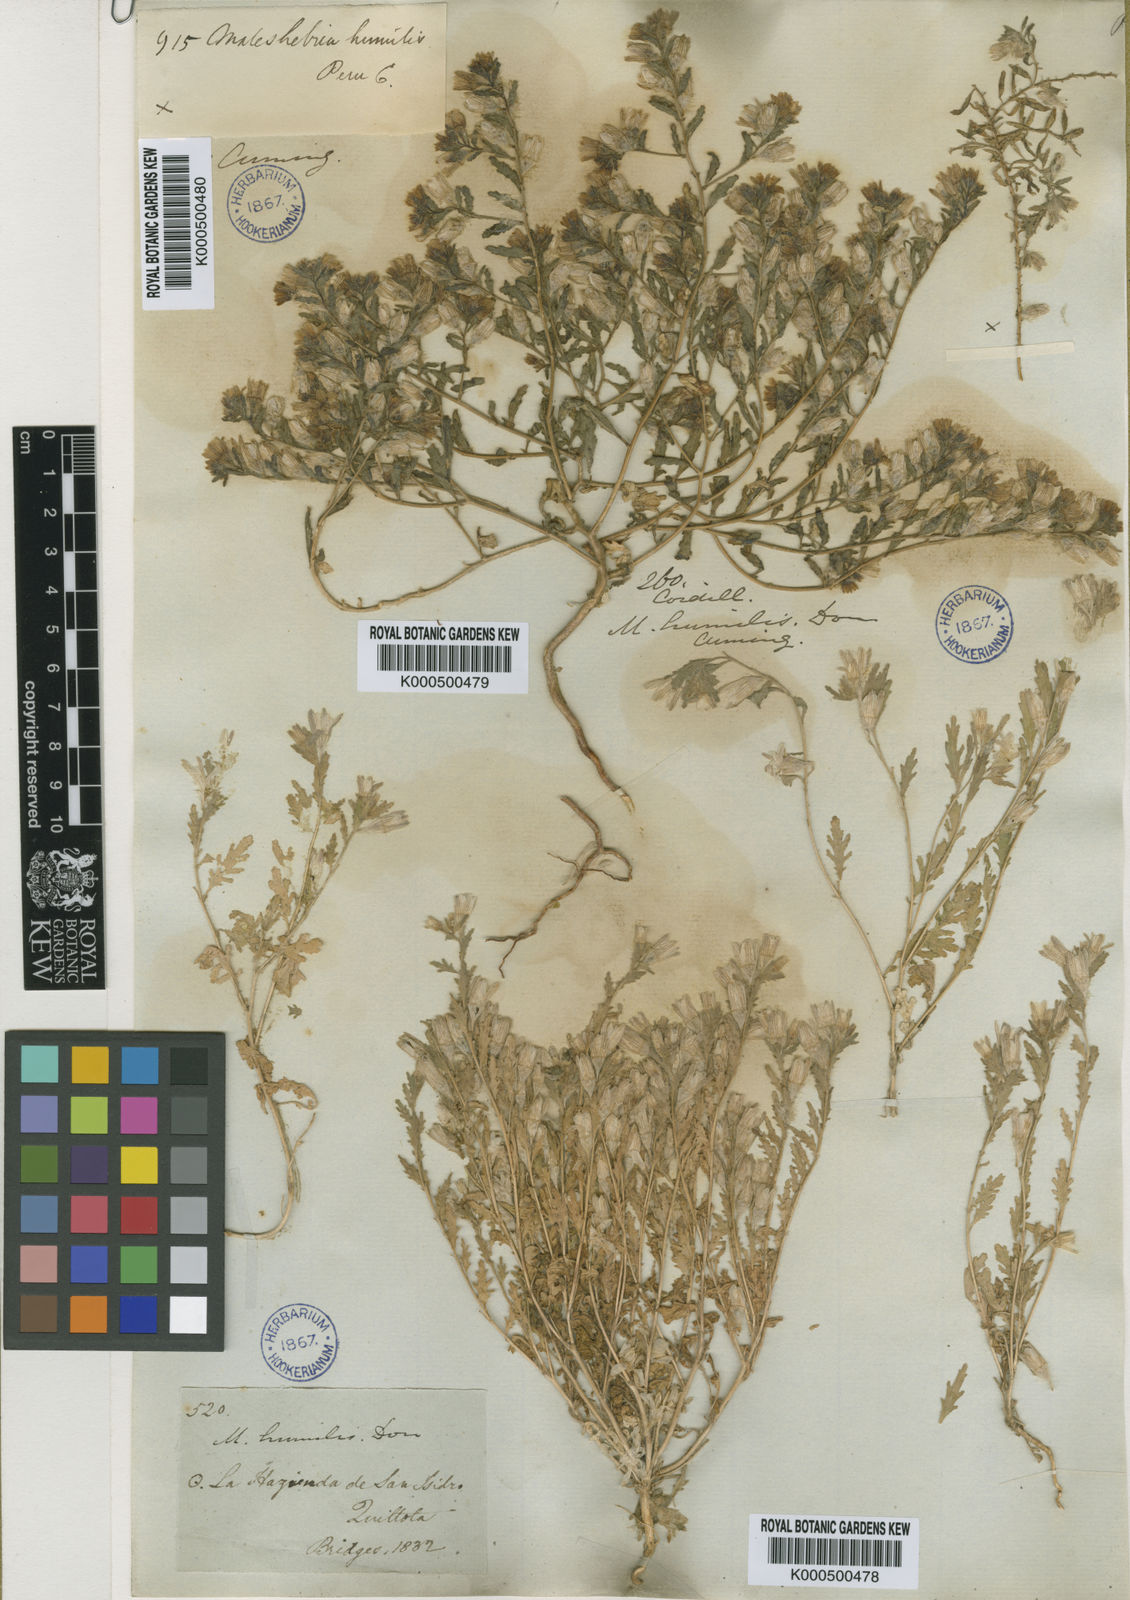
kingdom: Plantae
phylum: Tracheophyta
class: Magnoliopsida
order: Malpighiales
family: Malesherbiaceae
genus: Malesherbia
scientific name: Malesherbia
